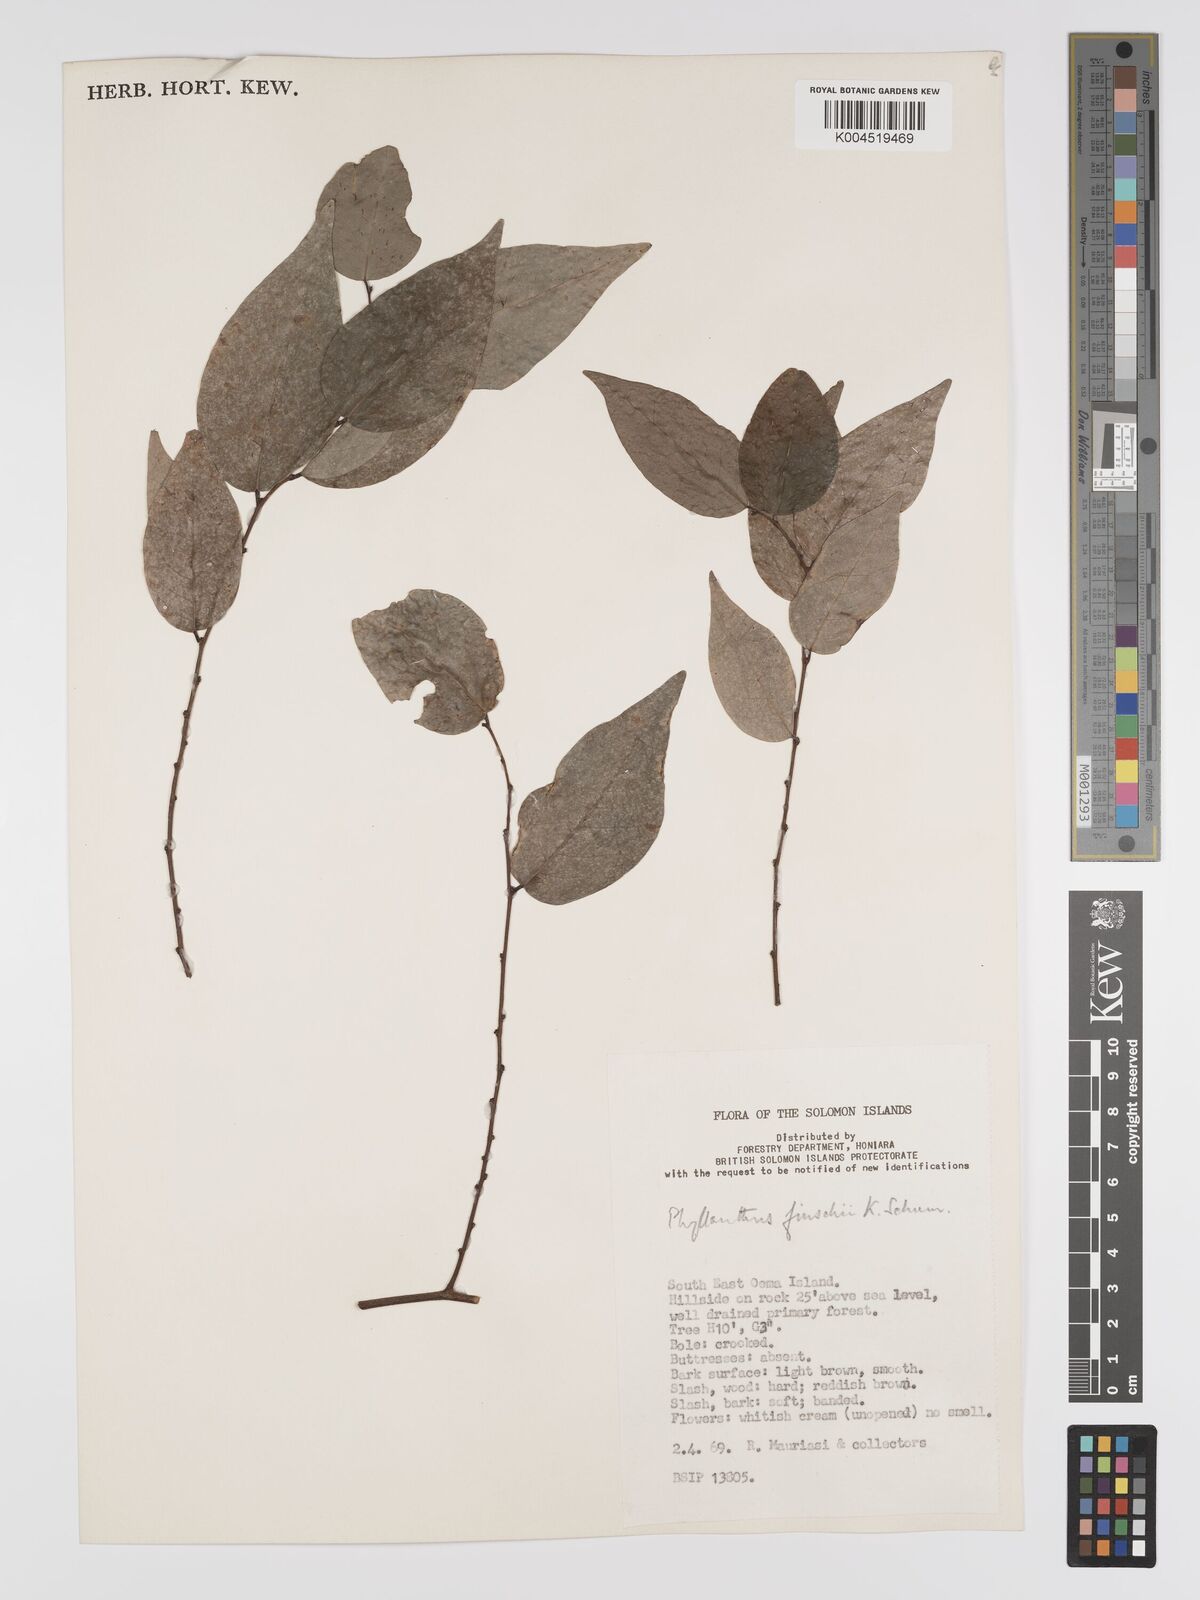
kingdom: Plantae
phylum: Tracheophyta
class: Magnoliopsida
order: Malpighiales
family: Phyllanthaceae
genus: Phyllanthus
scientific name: Phyllanthus finschii
